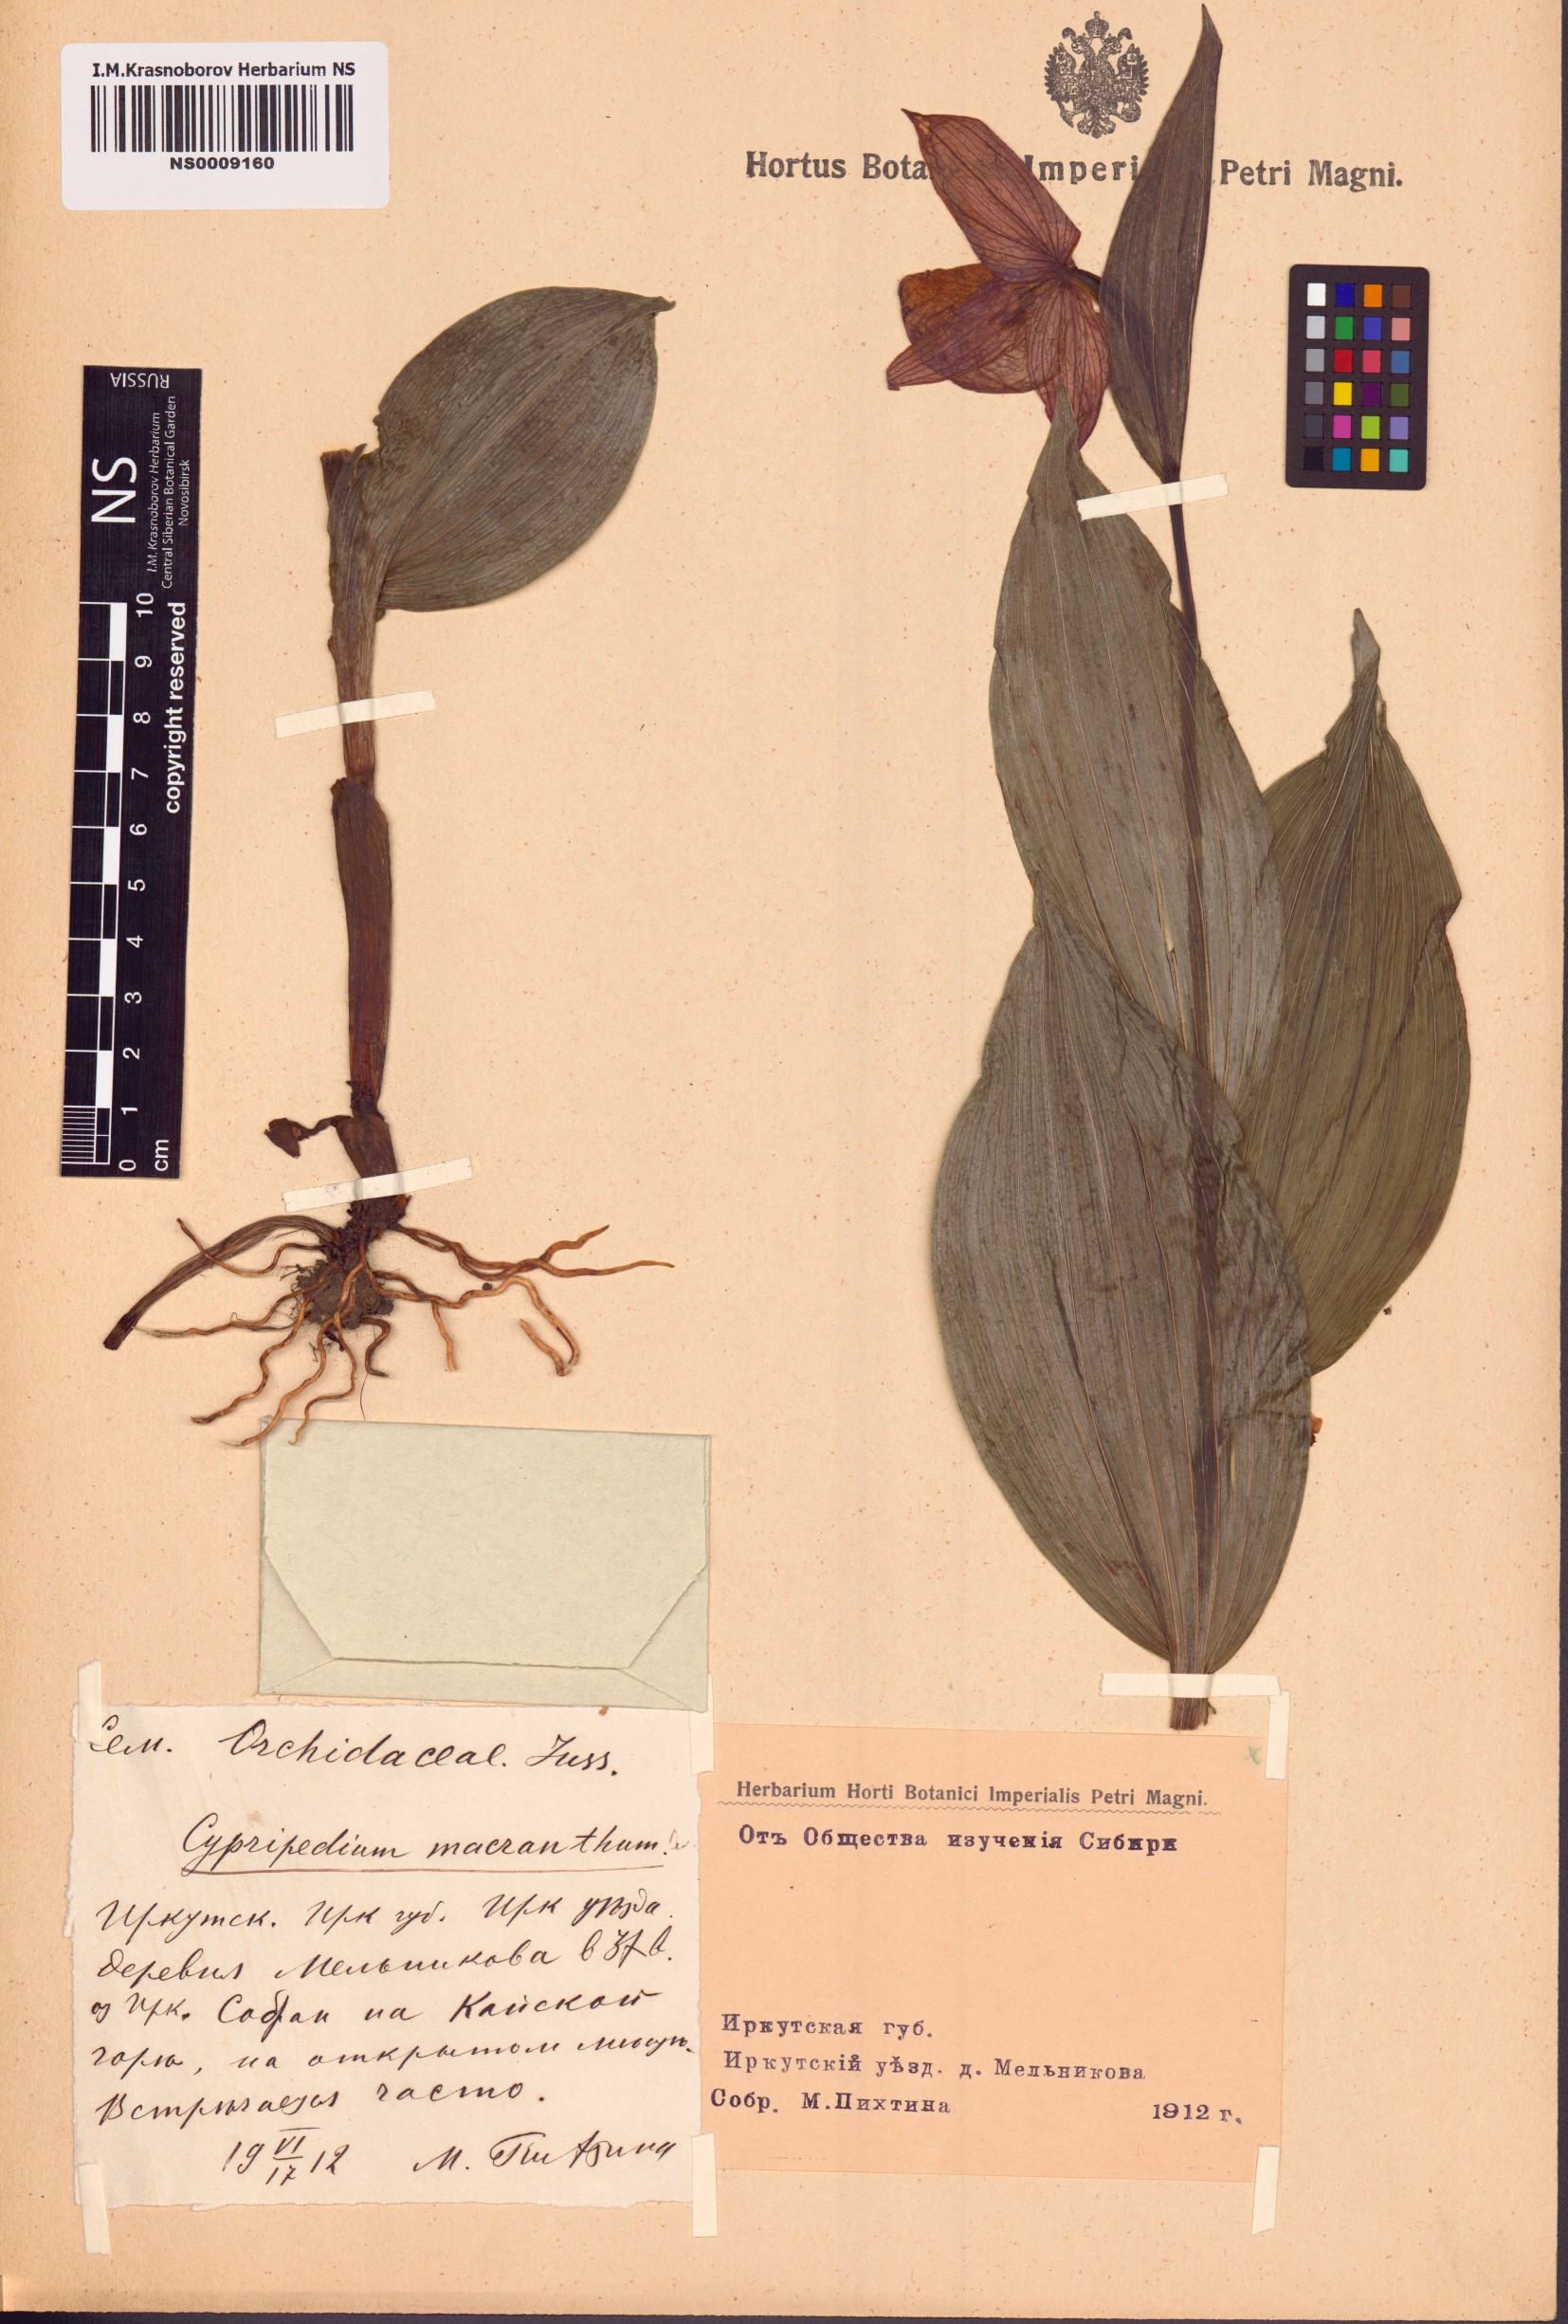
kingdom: Plantae
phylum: Tracheophyta
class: Liliopsida
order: Asparagales
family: Orchidaceae
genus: Cypripedium
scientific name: Cypripedium macranthos
